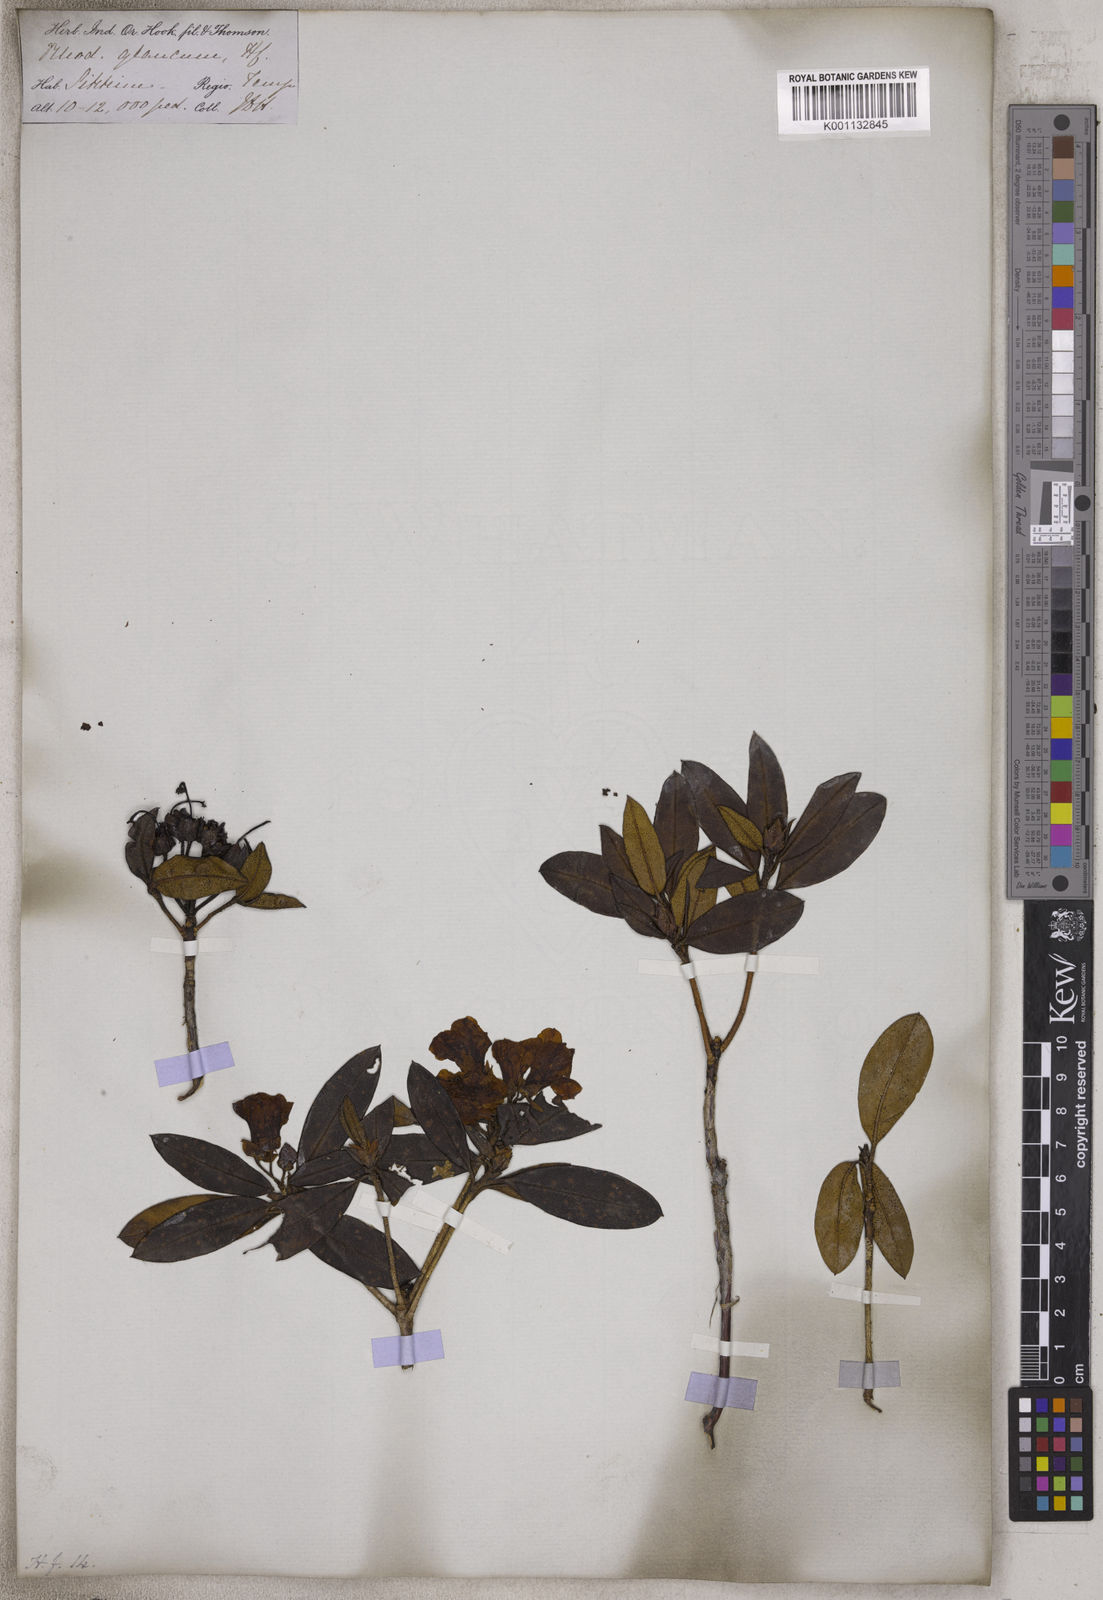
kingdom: Plantae
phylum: Tracheophyta
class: Magnoliopsida
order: Ericales
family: Ericaceae
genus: Rhododendron
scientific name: Rhododendron glaucophyllum
